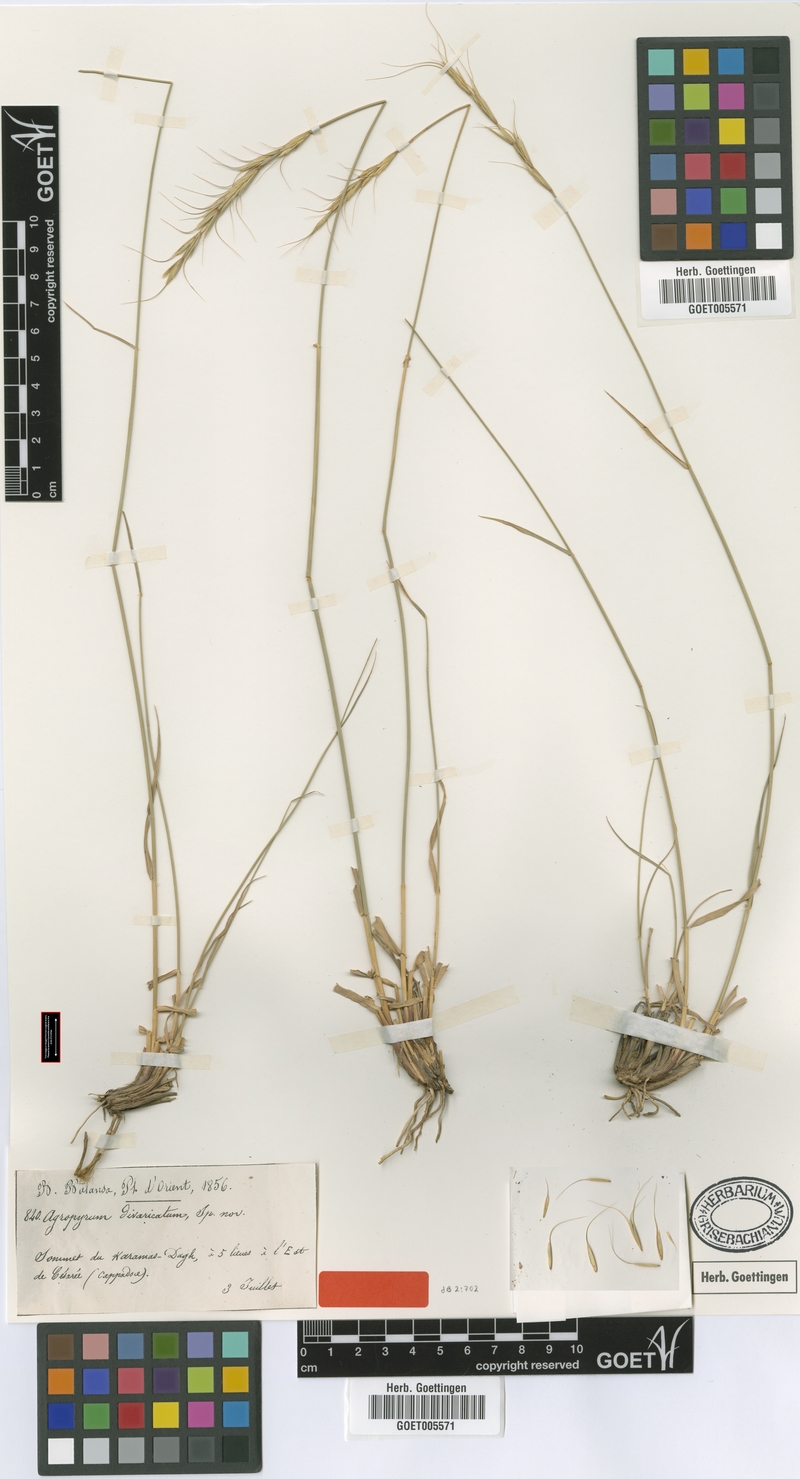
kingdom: Plantae
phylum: Tracheophyta
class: Liliopsida
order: Poales
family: Poaceae
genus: Elymus
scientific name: Elymus lazicus
